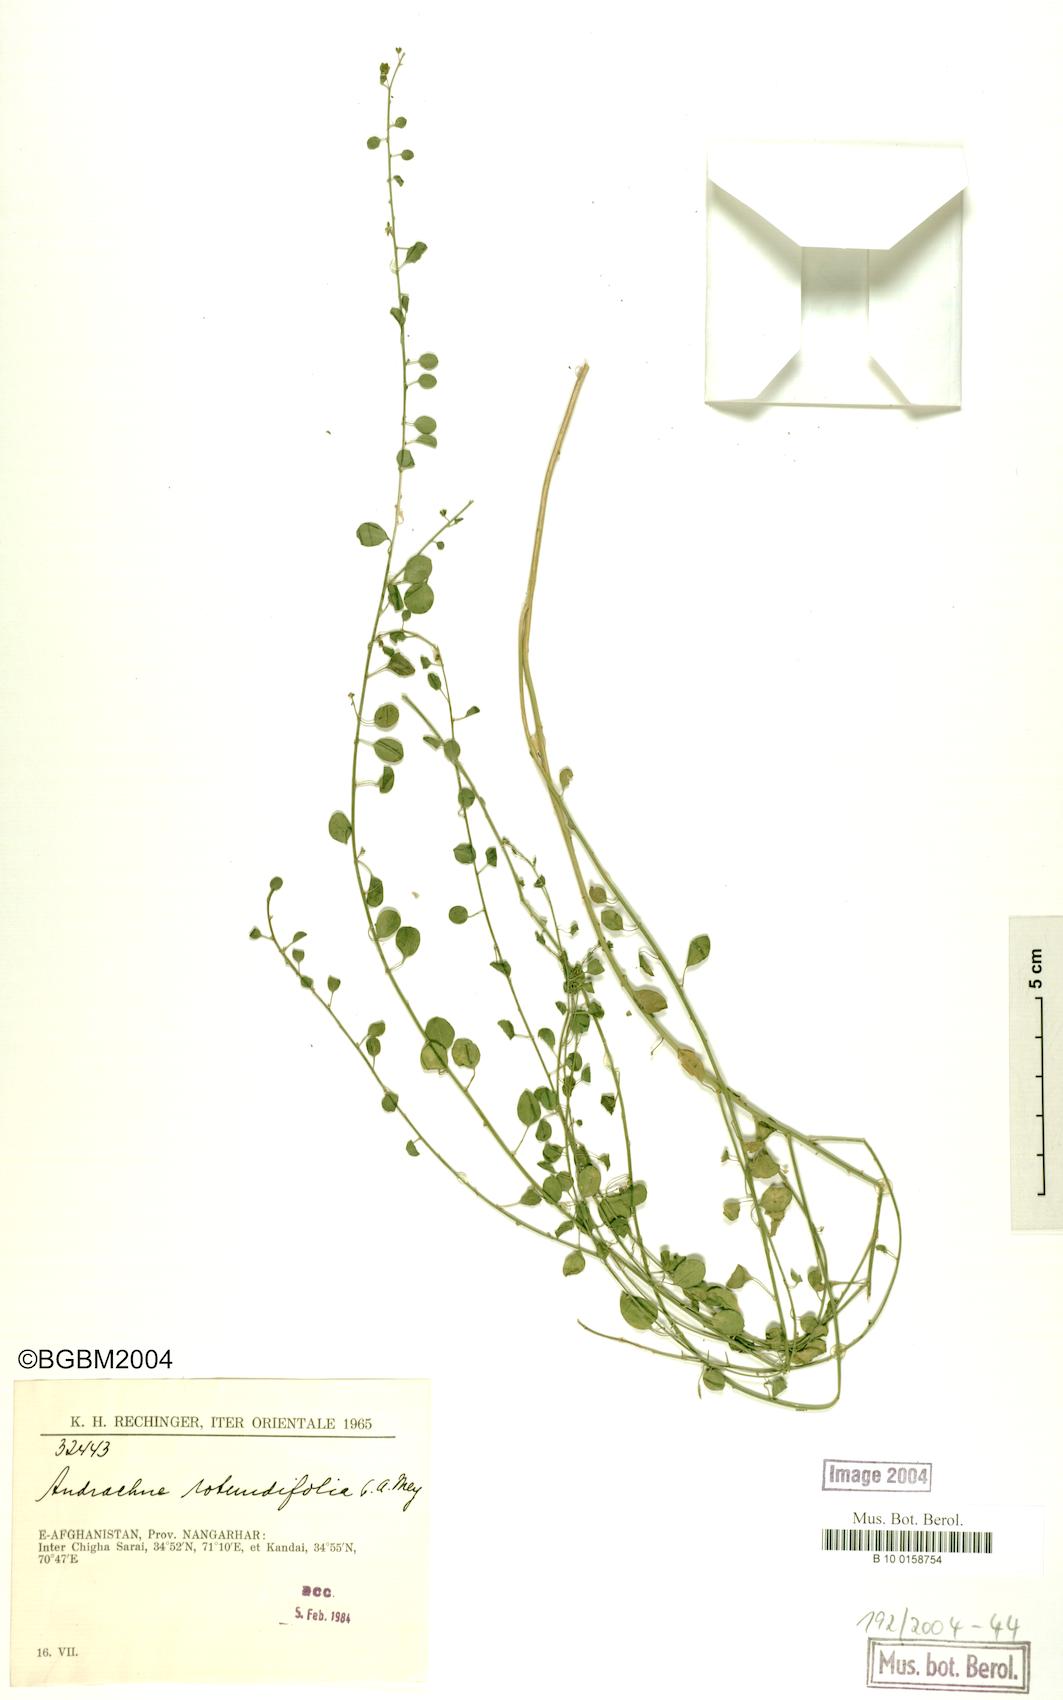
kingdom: Plantae
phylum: Tracheophyta
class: Magnoliopsida
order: Malpighiales
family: Phyllanthaceae
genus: Andrachne
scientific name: Andrachne telephioides
